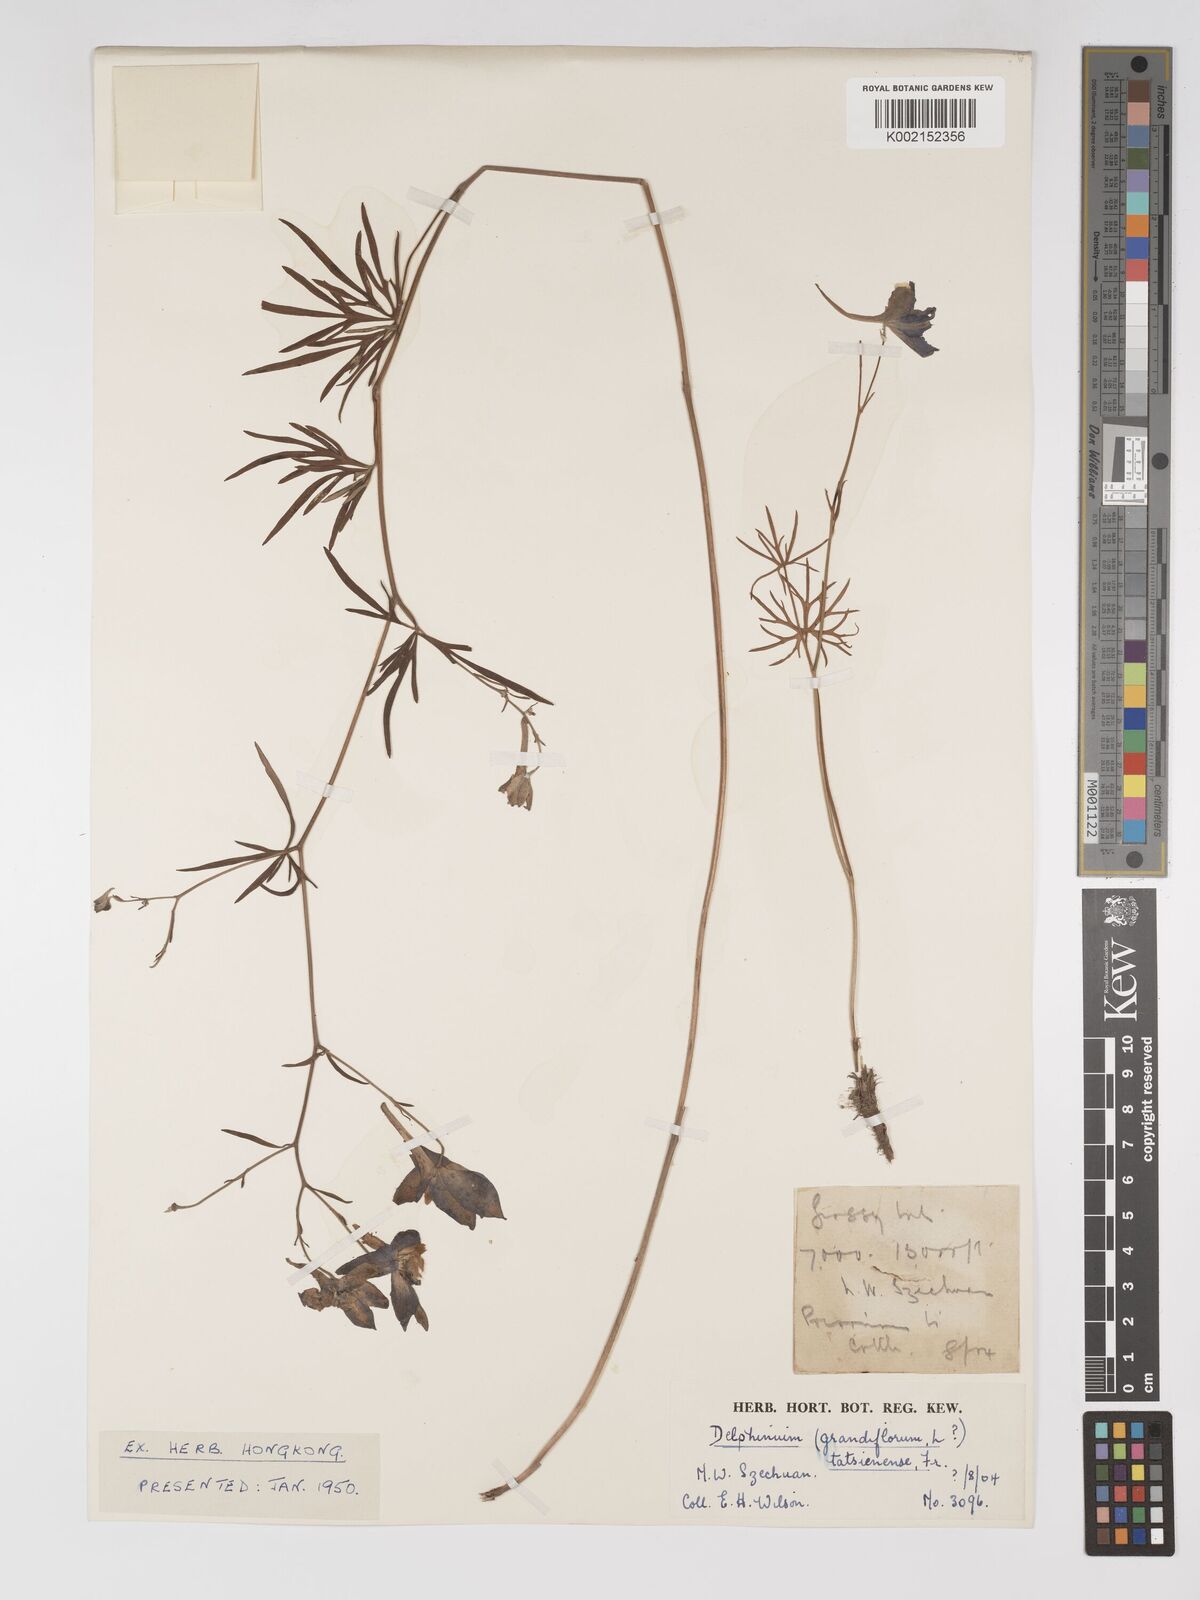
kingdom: Plantae
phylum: Tracheophyta
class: Magnoliopsida
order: Ranunculales
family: Ranunculaceae
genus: Delphinium
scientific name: Delphinium tatsienense
